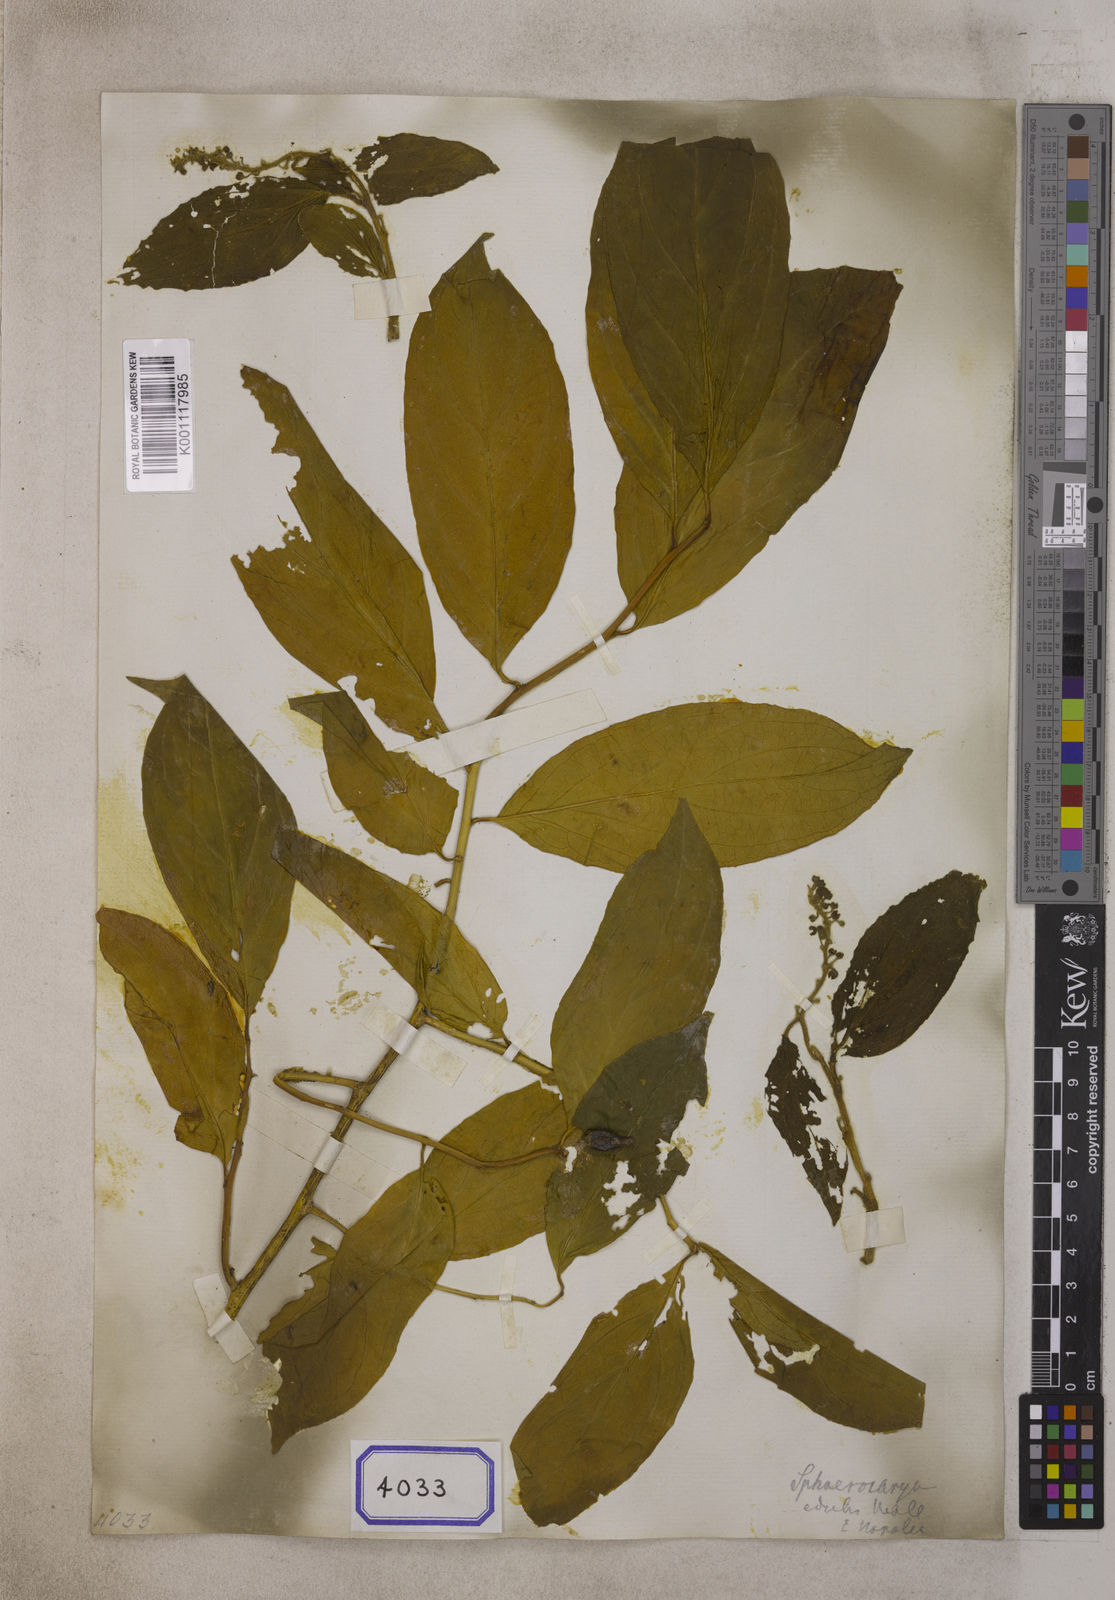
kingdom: Plantae
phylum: Tracheophyta
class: Magnoliopsida
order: Santalales
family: Cervantesiaceae
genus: Pyrularia
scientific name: Pyrularia edulis
